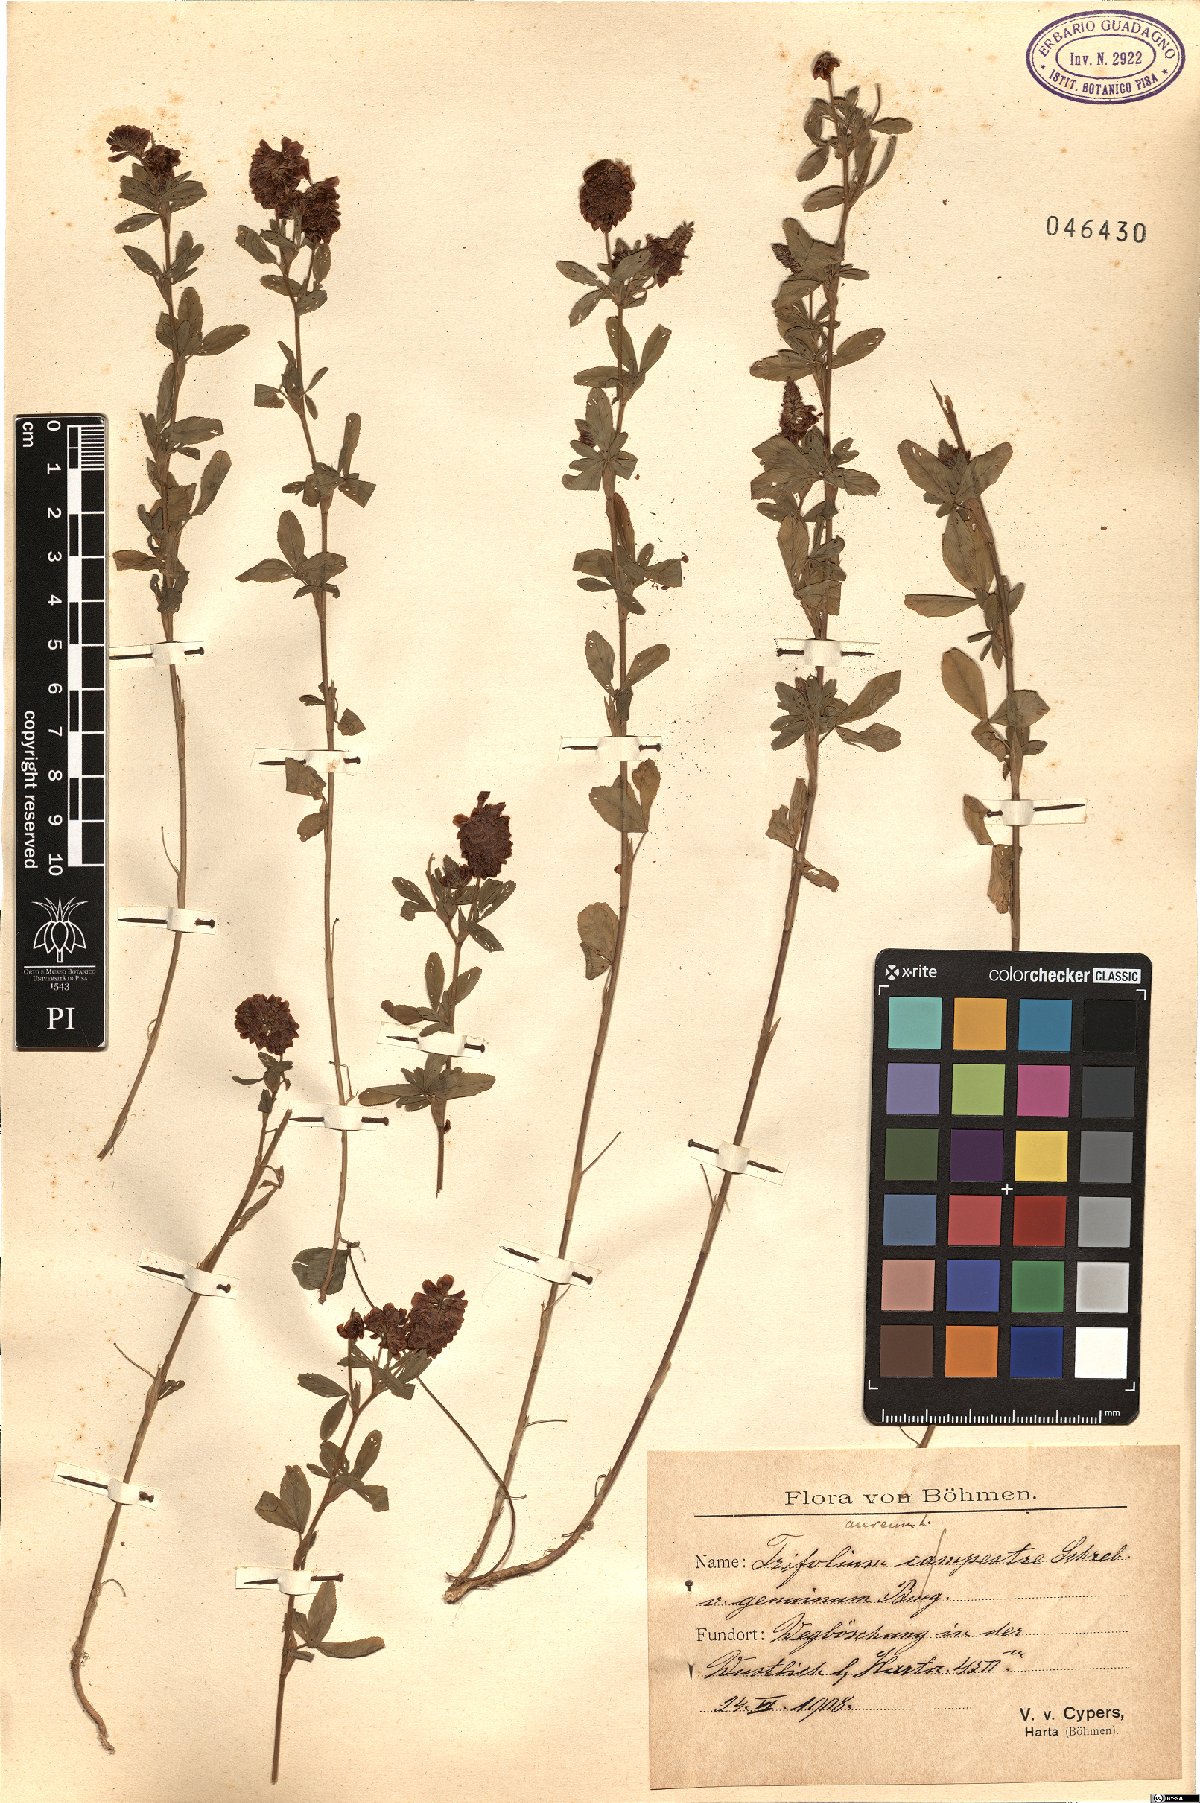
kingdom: Plantae
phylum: Tracheophyta
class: Magnoliopsida
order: Fabales
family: Fabaceae
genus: Trifolium
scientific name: Trifolium aureum
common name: Golden clover
